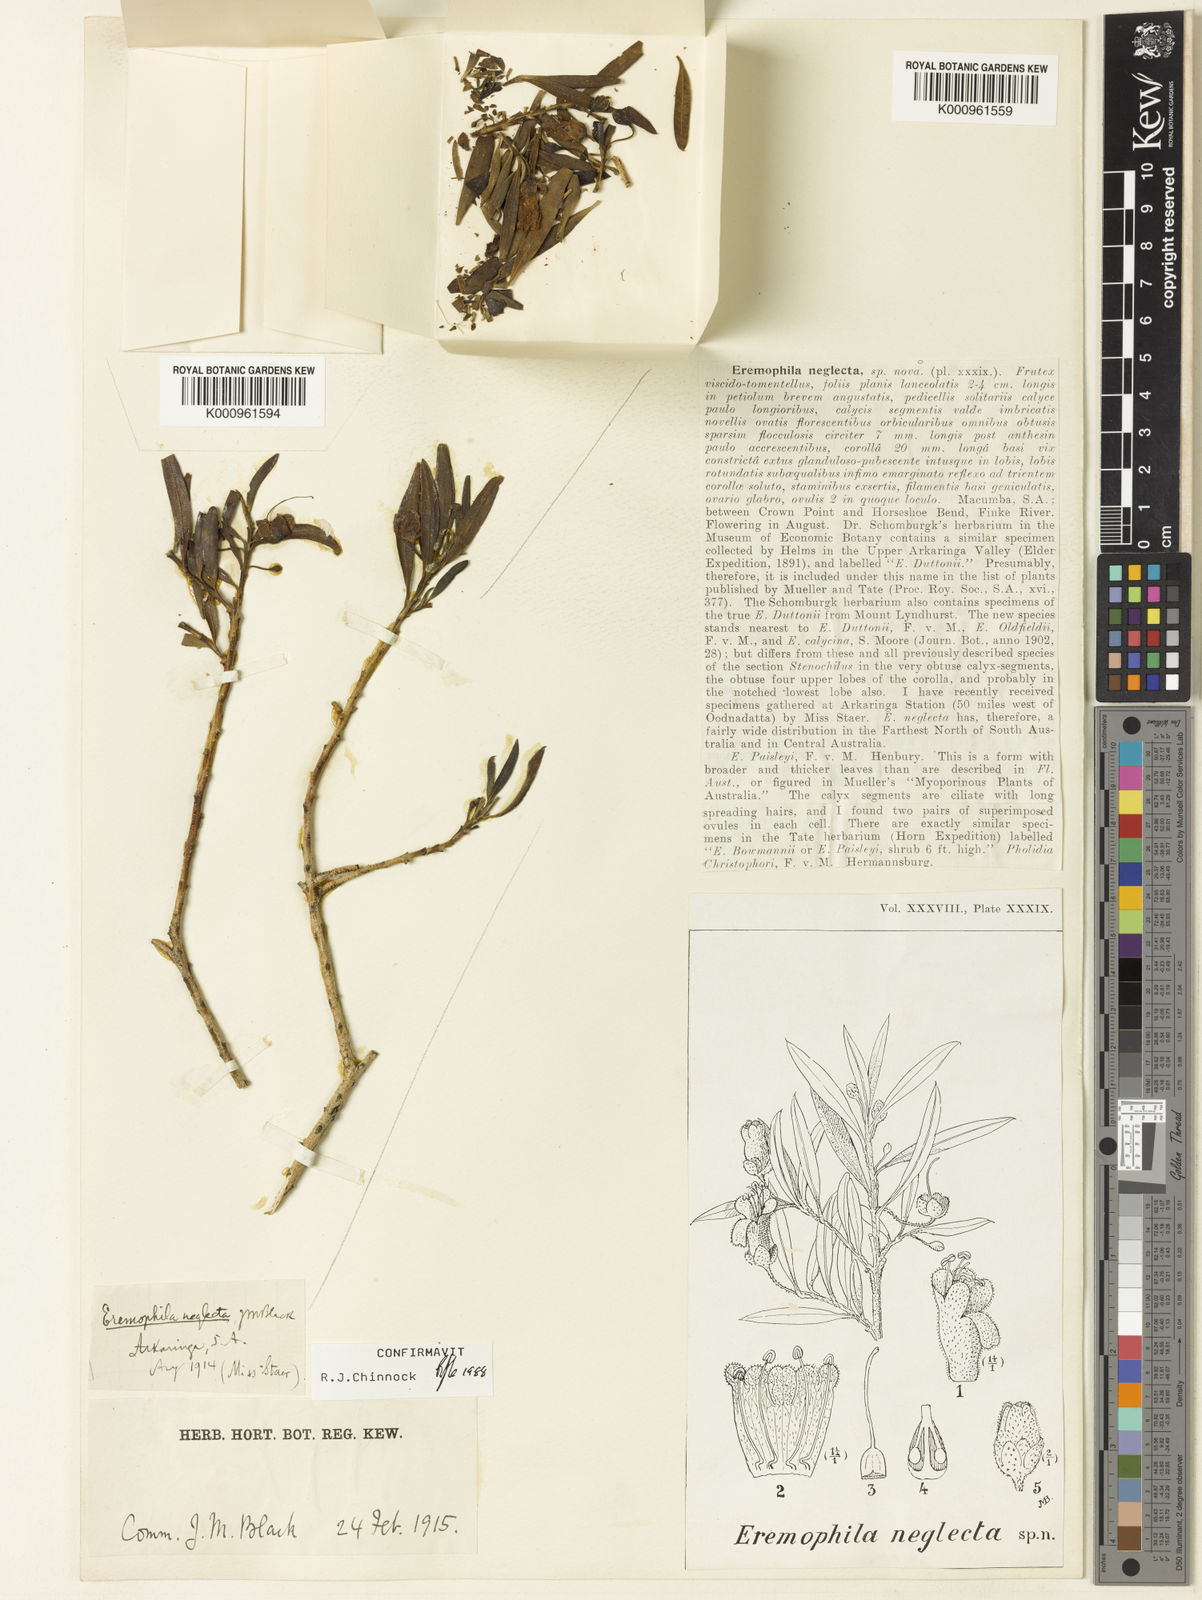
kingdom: Plantae
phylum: Tracheophyta
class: Magnoliopsida
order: Lamiales
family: Scrophulariaceae
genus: Eremophila
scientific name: Eremophila neglecta
